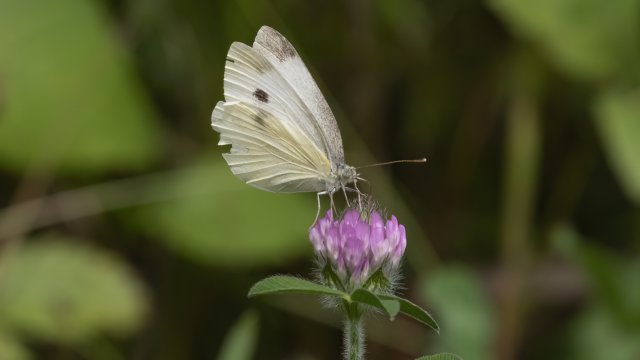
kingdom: Animalia
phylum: Arthropoda
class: Insecta
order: Lepidoptera
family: Pieridae
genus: Pieris
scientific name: Pieris rapae
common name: Cabbage White
